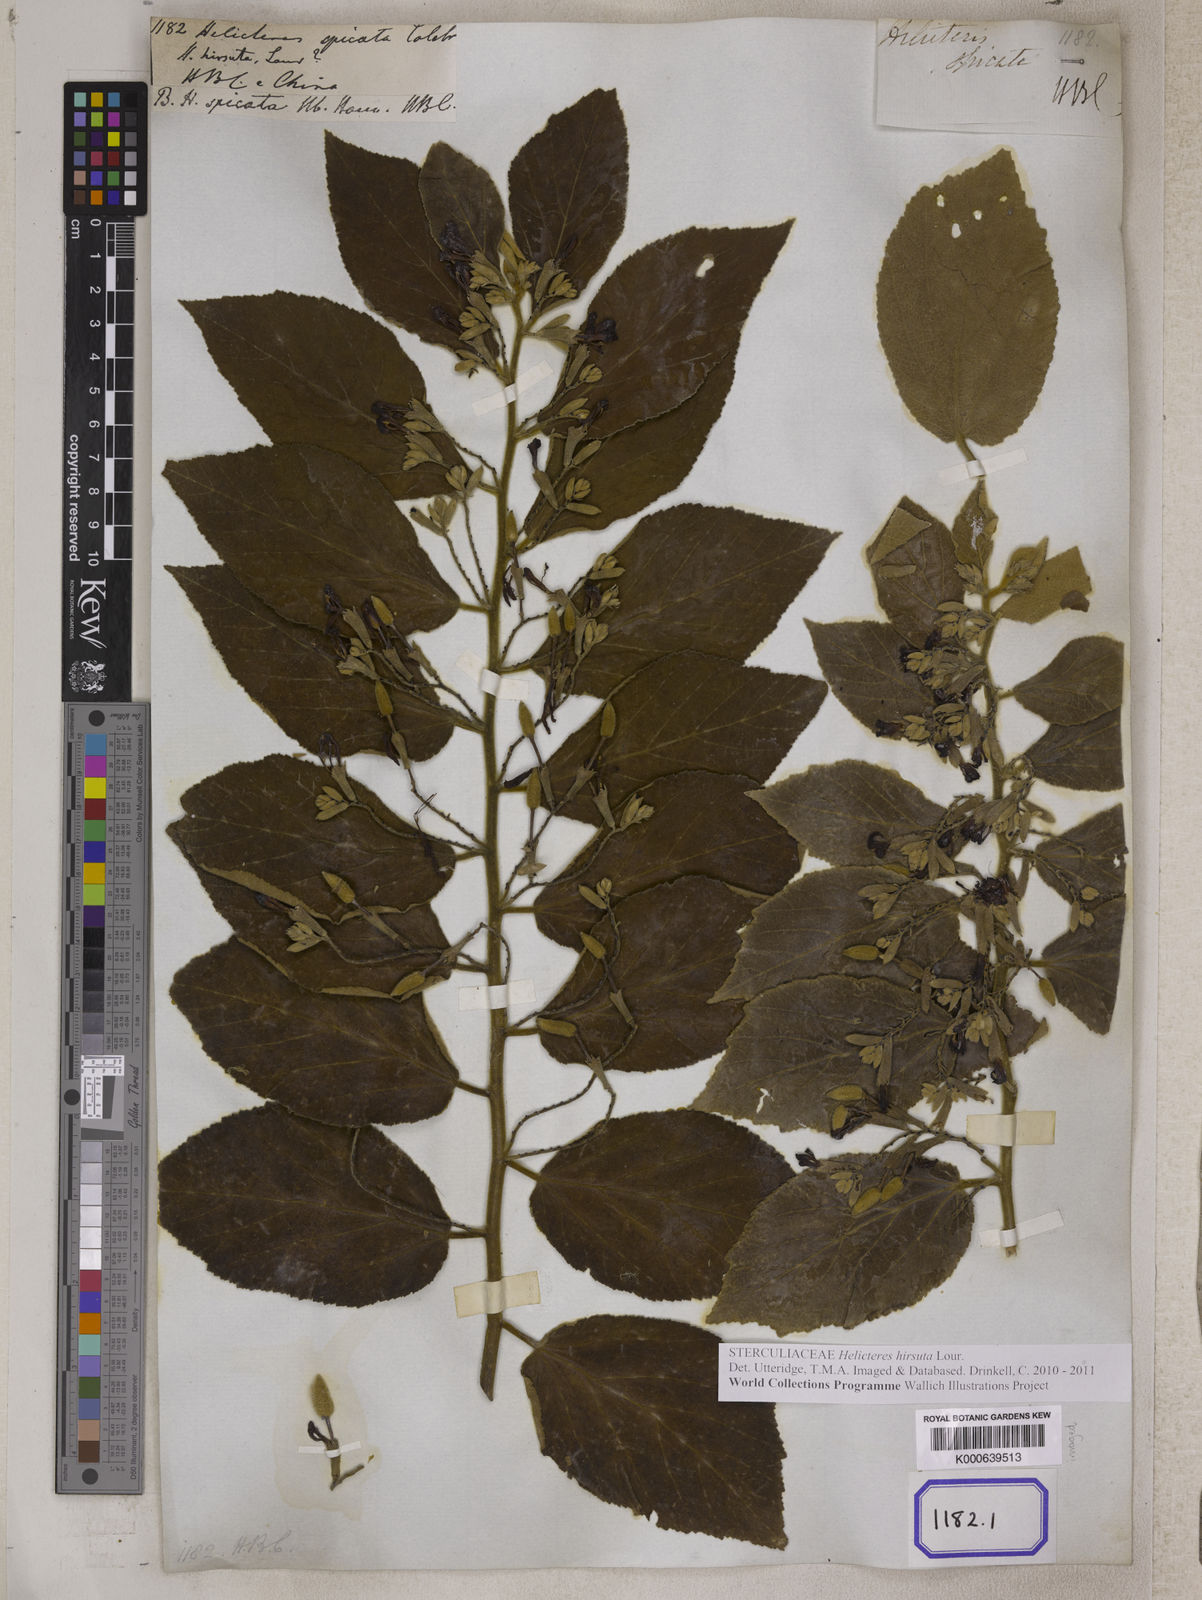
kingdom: Plantae
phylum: Tracheophyta
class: Magnoliopsida
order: Malvales
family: Malvaceae
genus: Helicteres
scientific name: Helicteres
